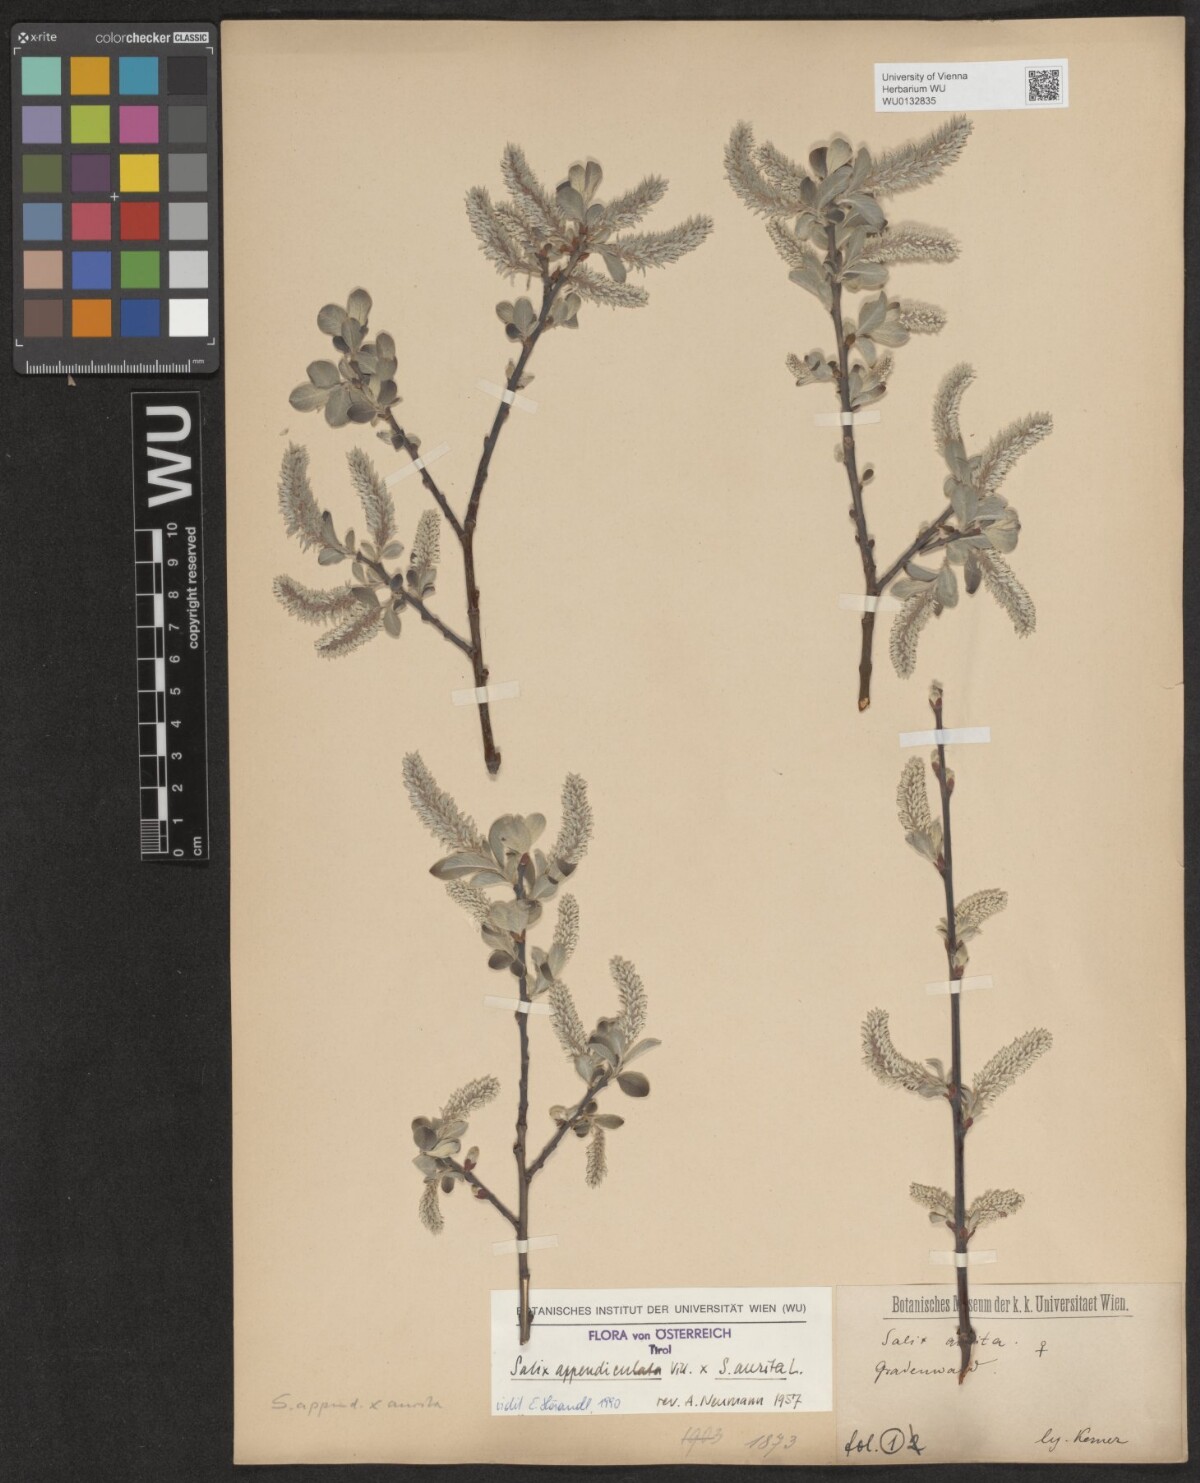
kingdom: Plantae
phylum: Tracheophyta
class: Magnoliopsida
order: Malpighiales
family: Salicaceae
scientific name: Salicaceae
